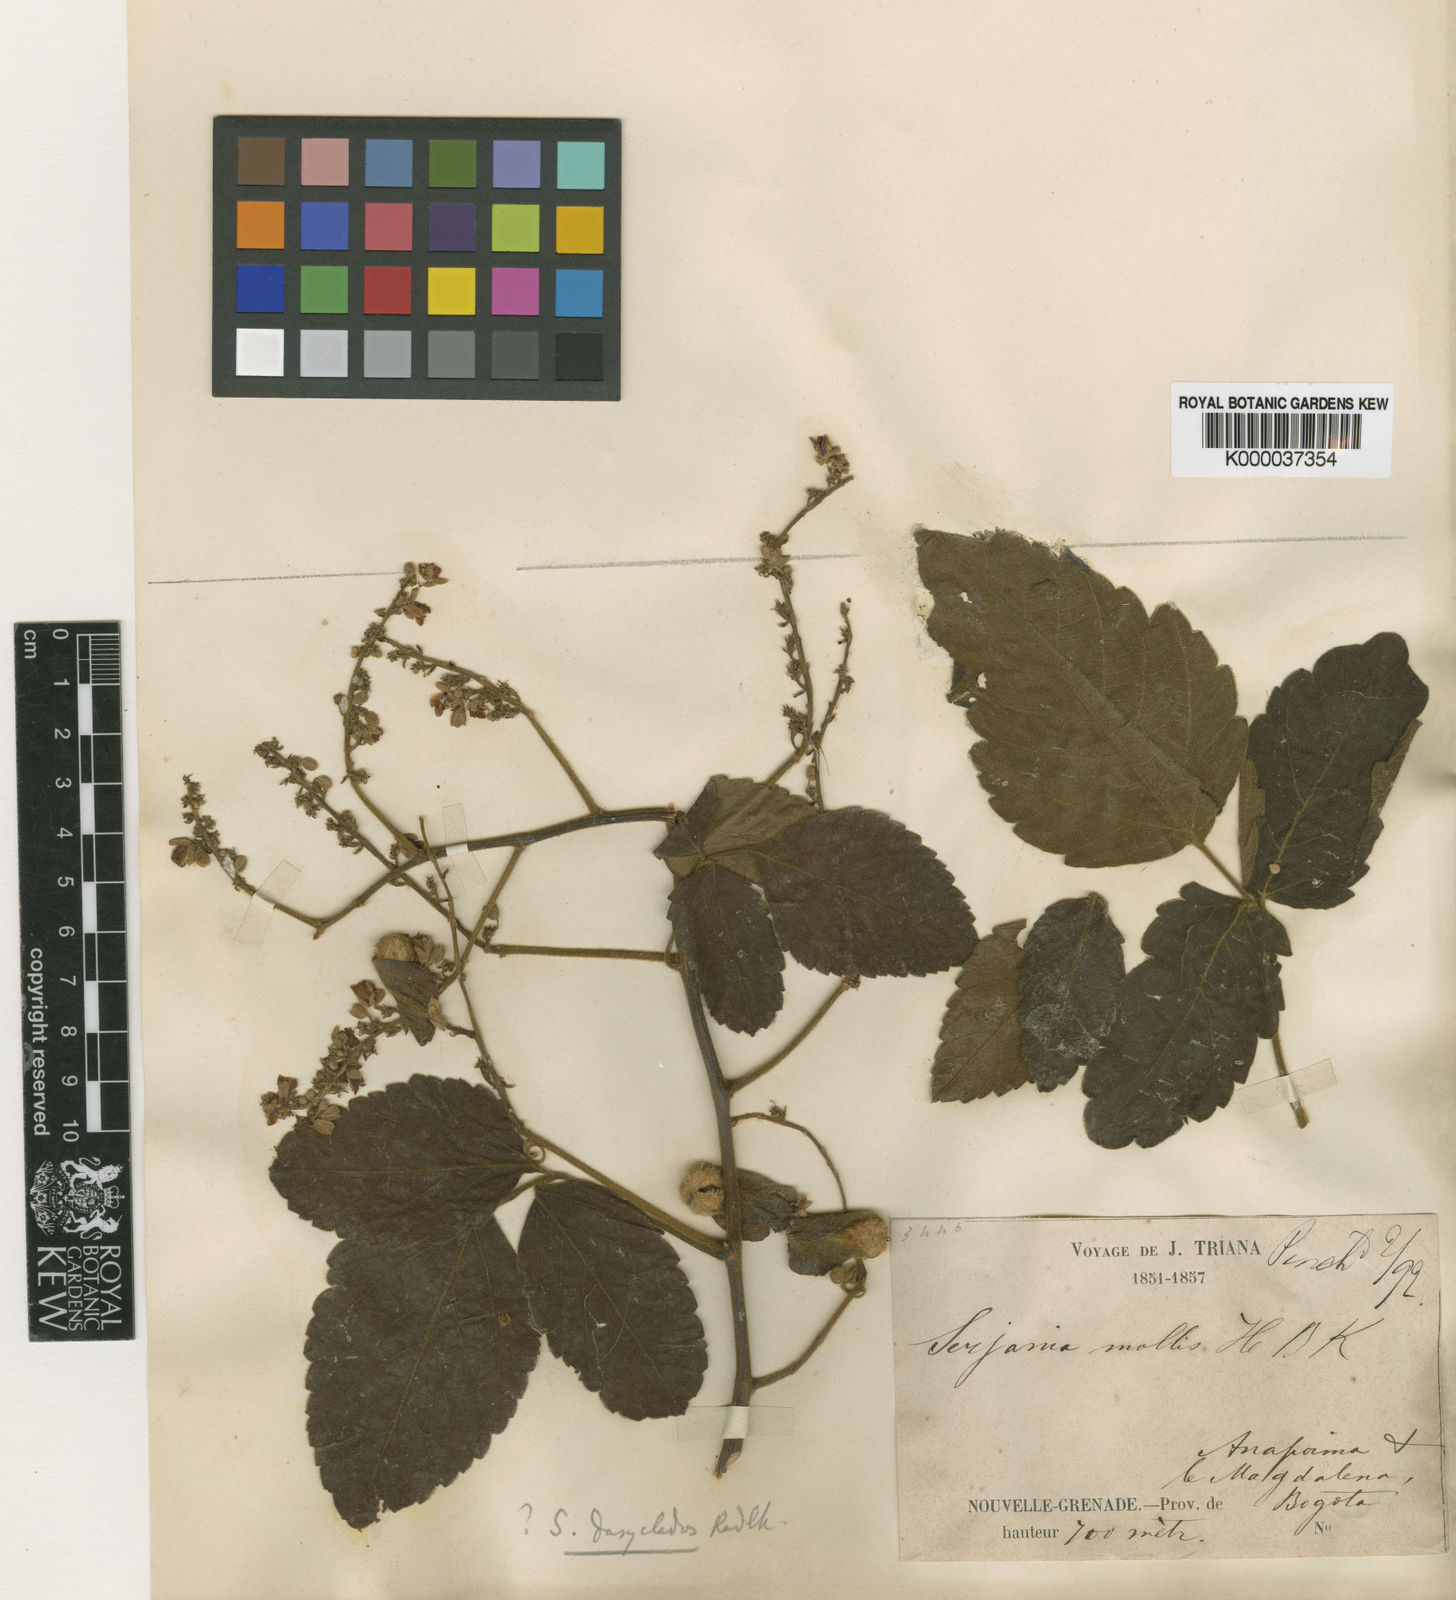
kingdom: Plantae
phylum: Tracheophyta
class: Magnoliopsida
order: Sapindales
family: Sapindaceae
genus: Serjania
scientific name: Serjania dasyclados
